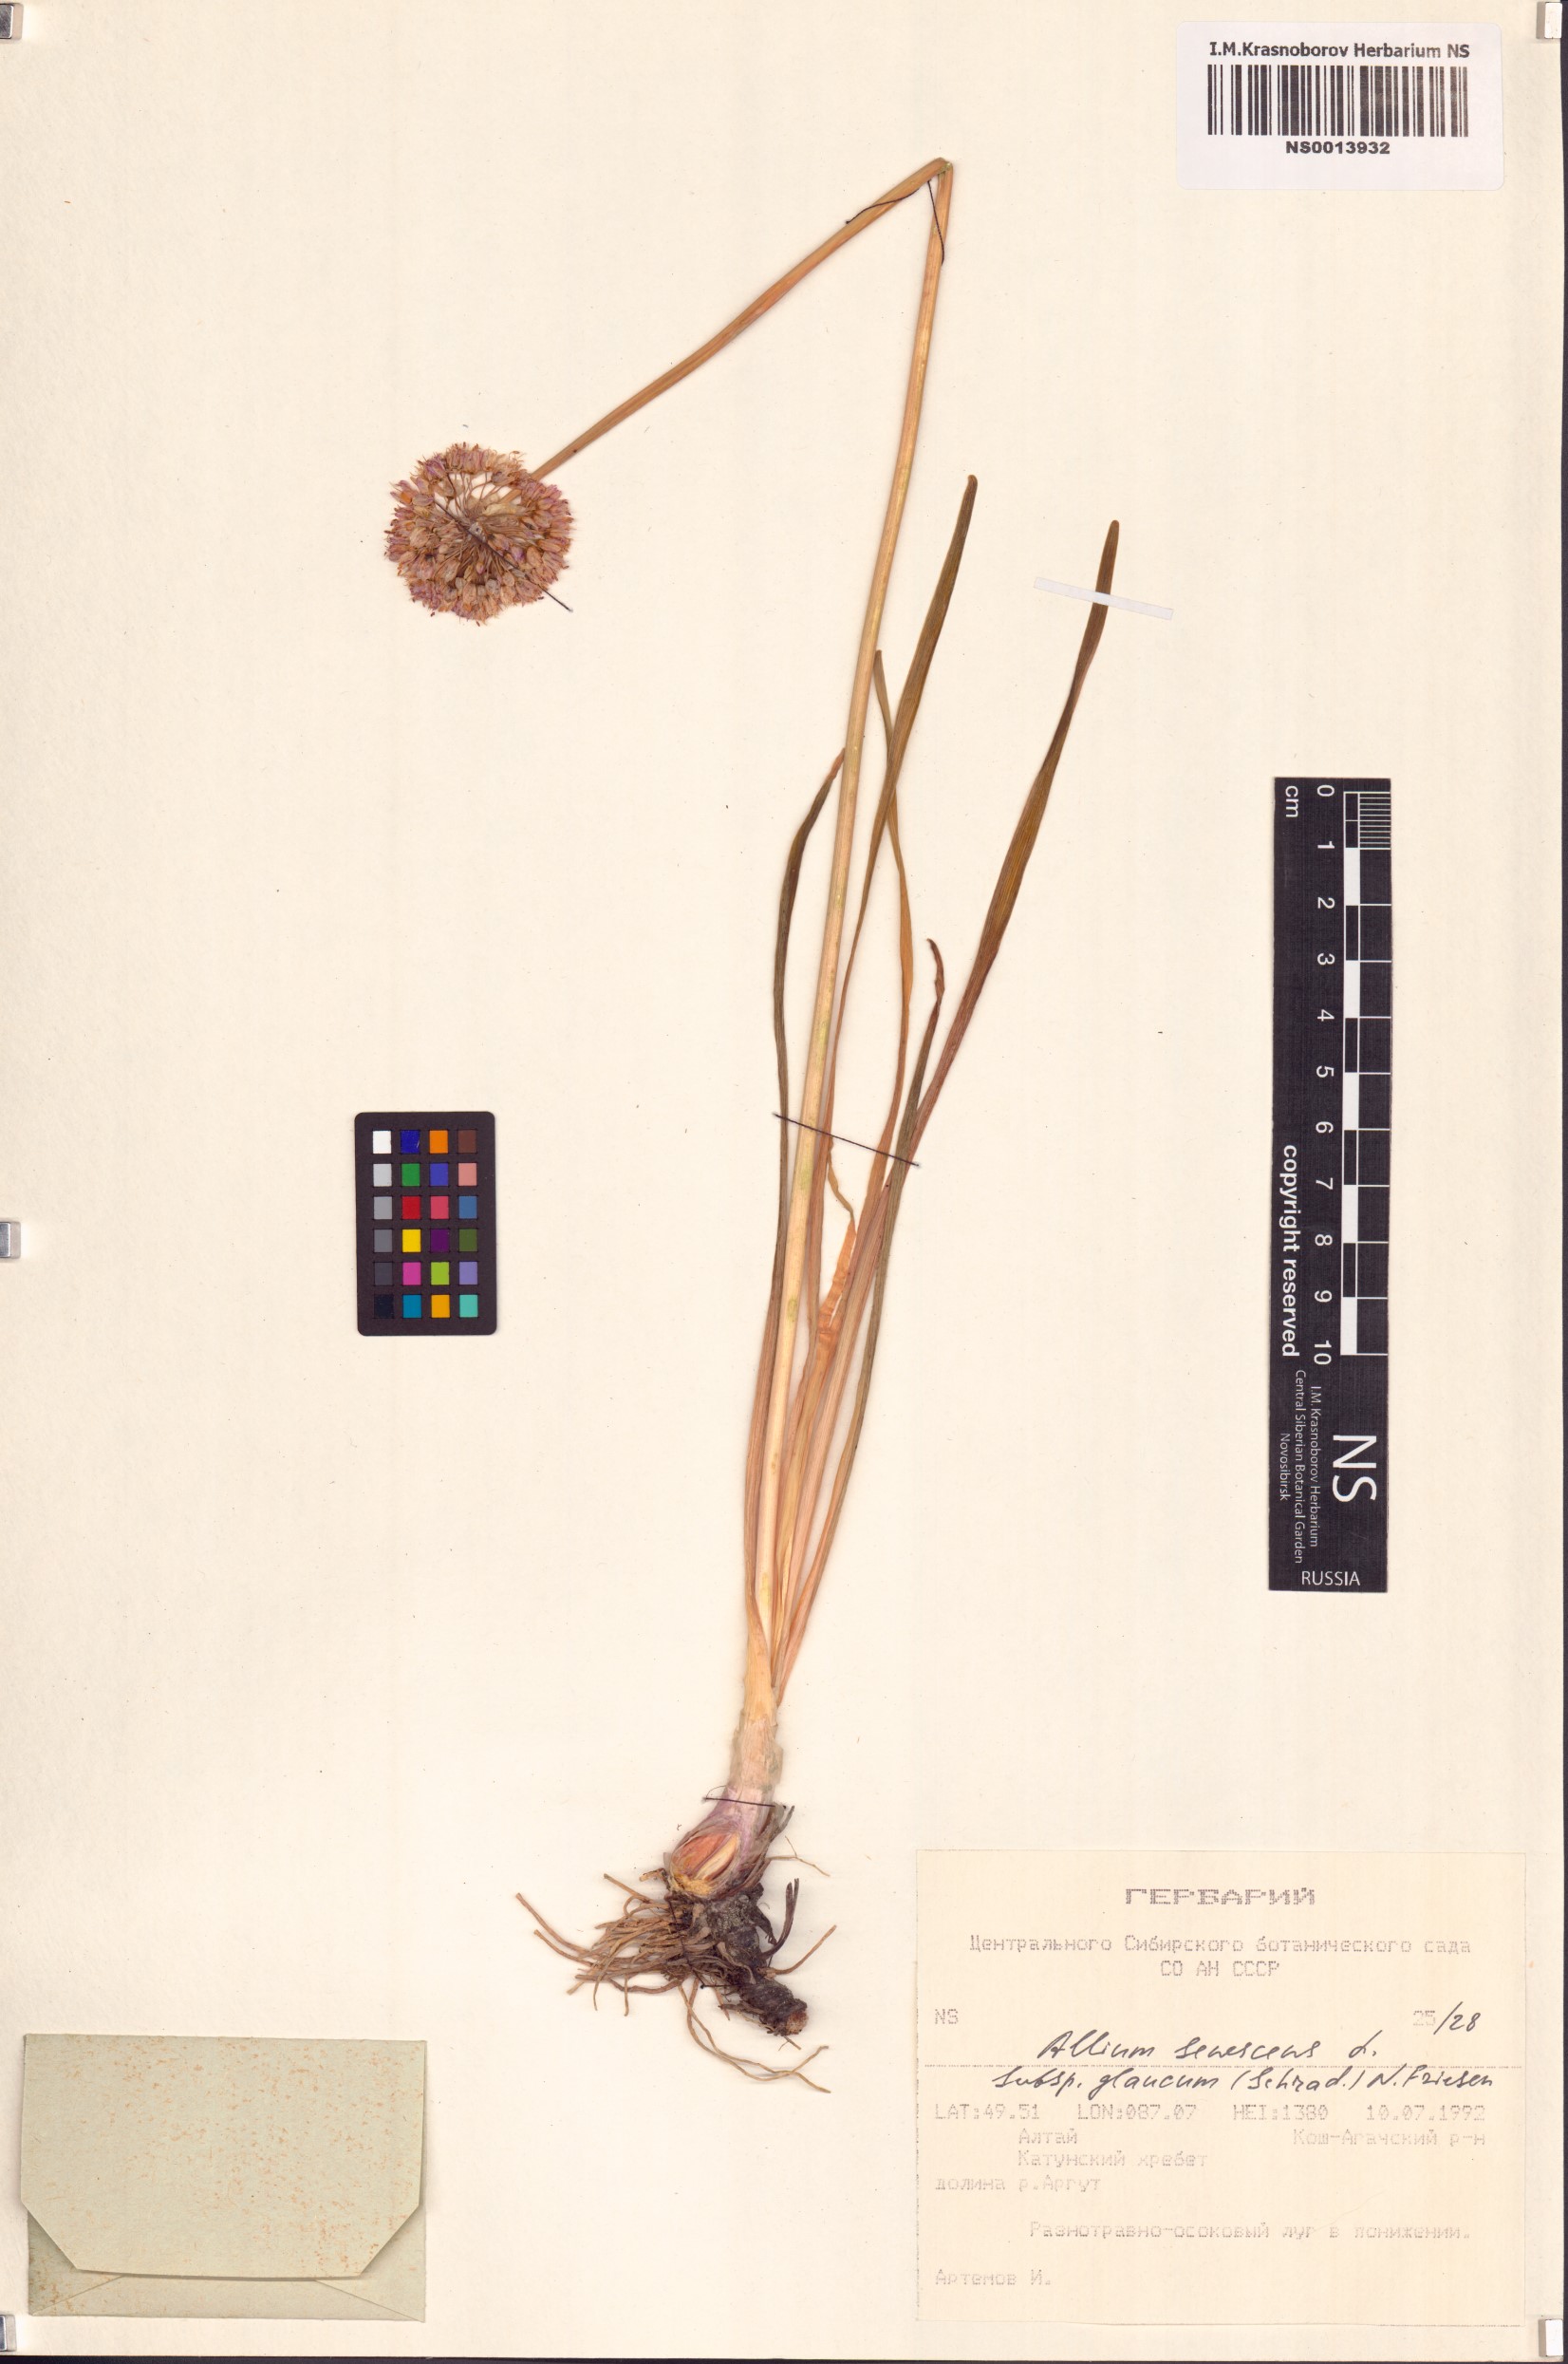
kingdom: Plantae
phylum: Tracheophyta
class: Liliopsida
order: Asparagales
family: Amaryllidaceae
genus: Allium
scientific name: Allium senescens
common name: German garlic
